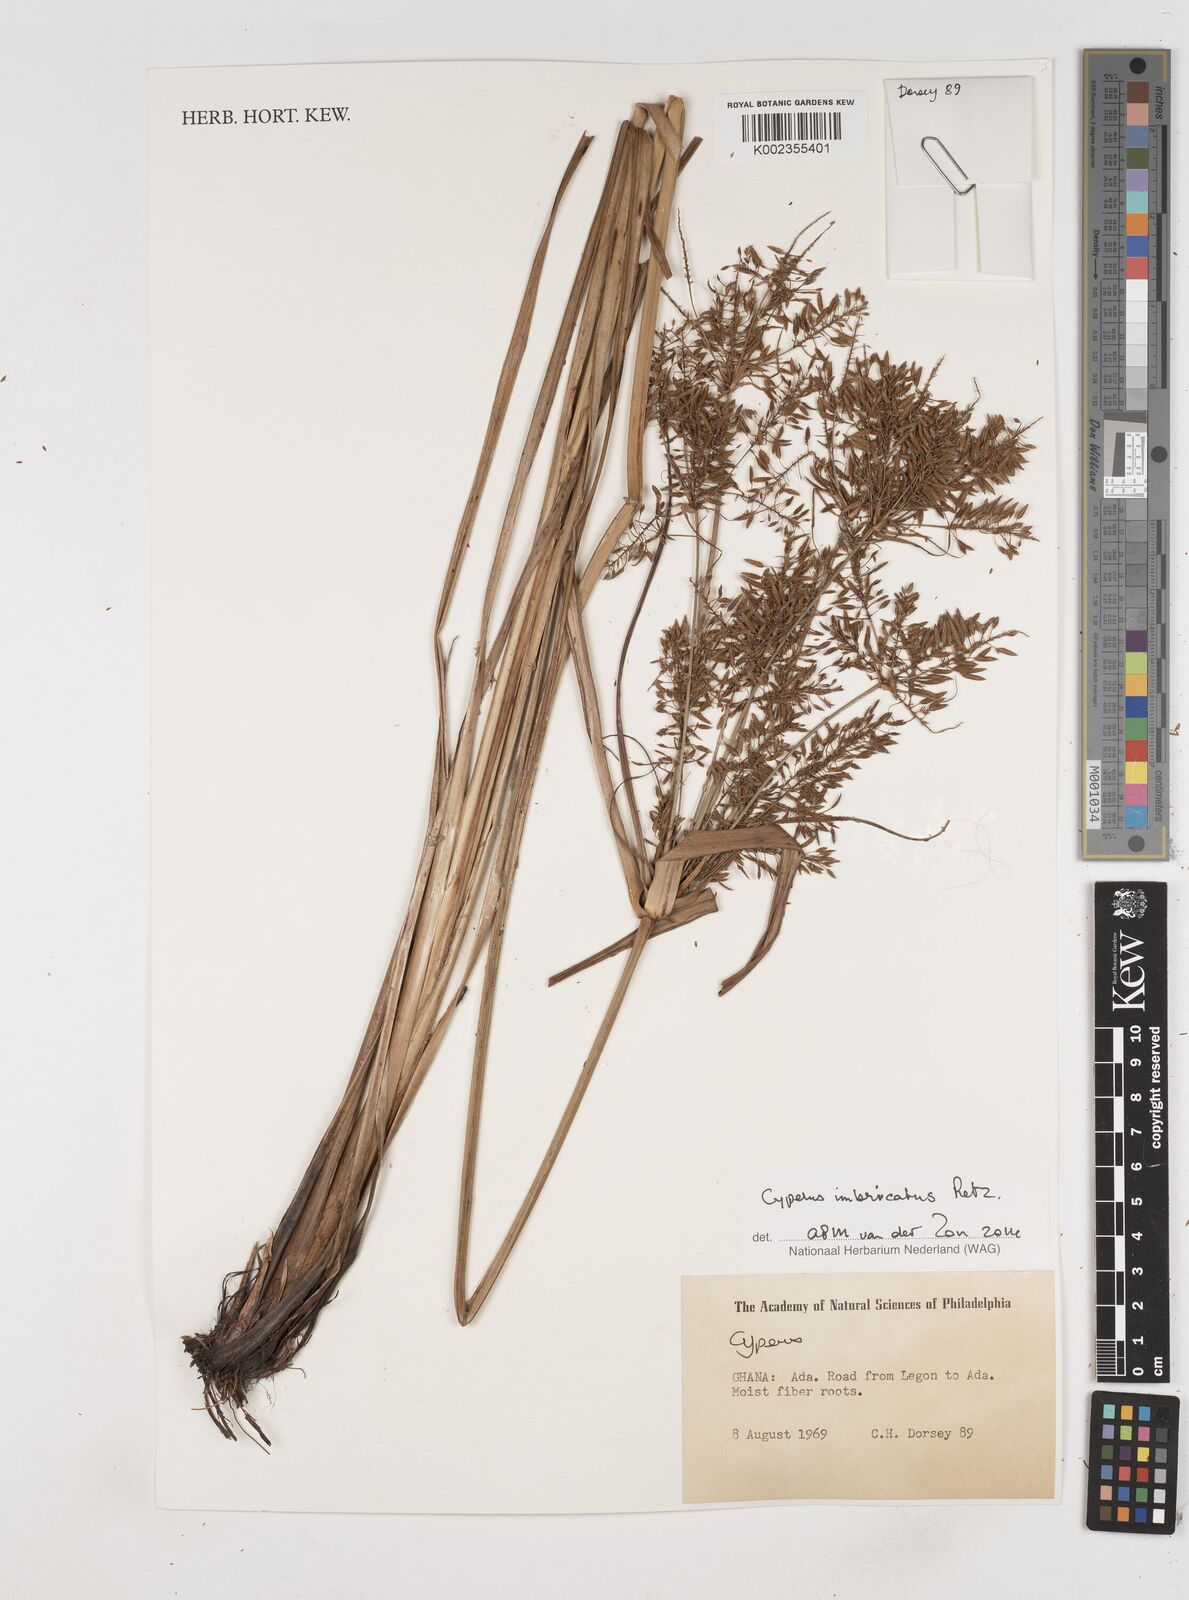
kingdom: Plantae
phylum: Tracheophyta
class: Liliopsida
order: Poales
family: Cyperaceae
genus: Cyperus
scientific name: Cyperus imbricatus
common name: Shingle flatsedge
